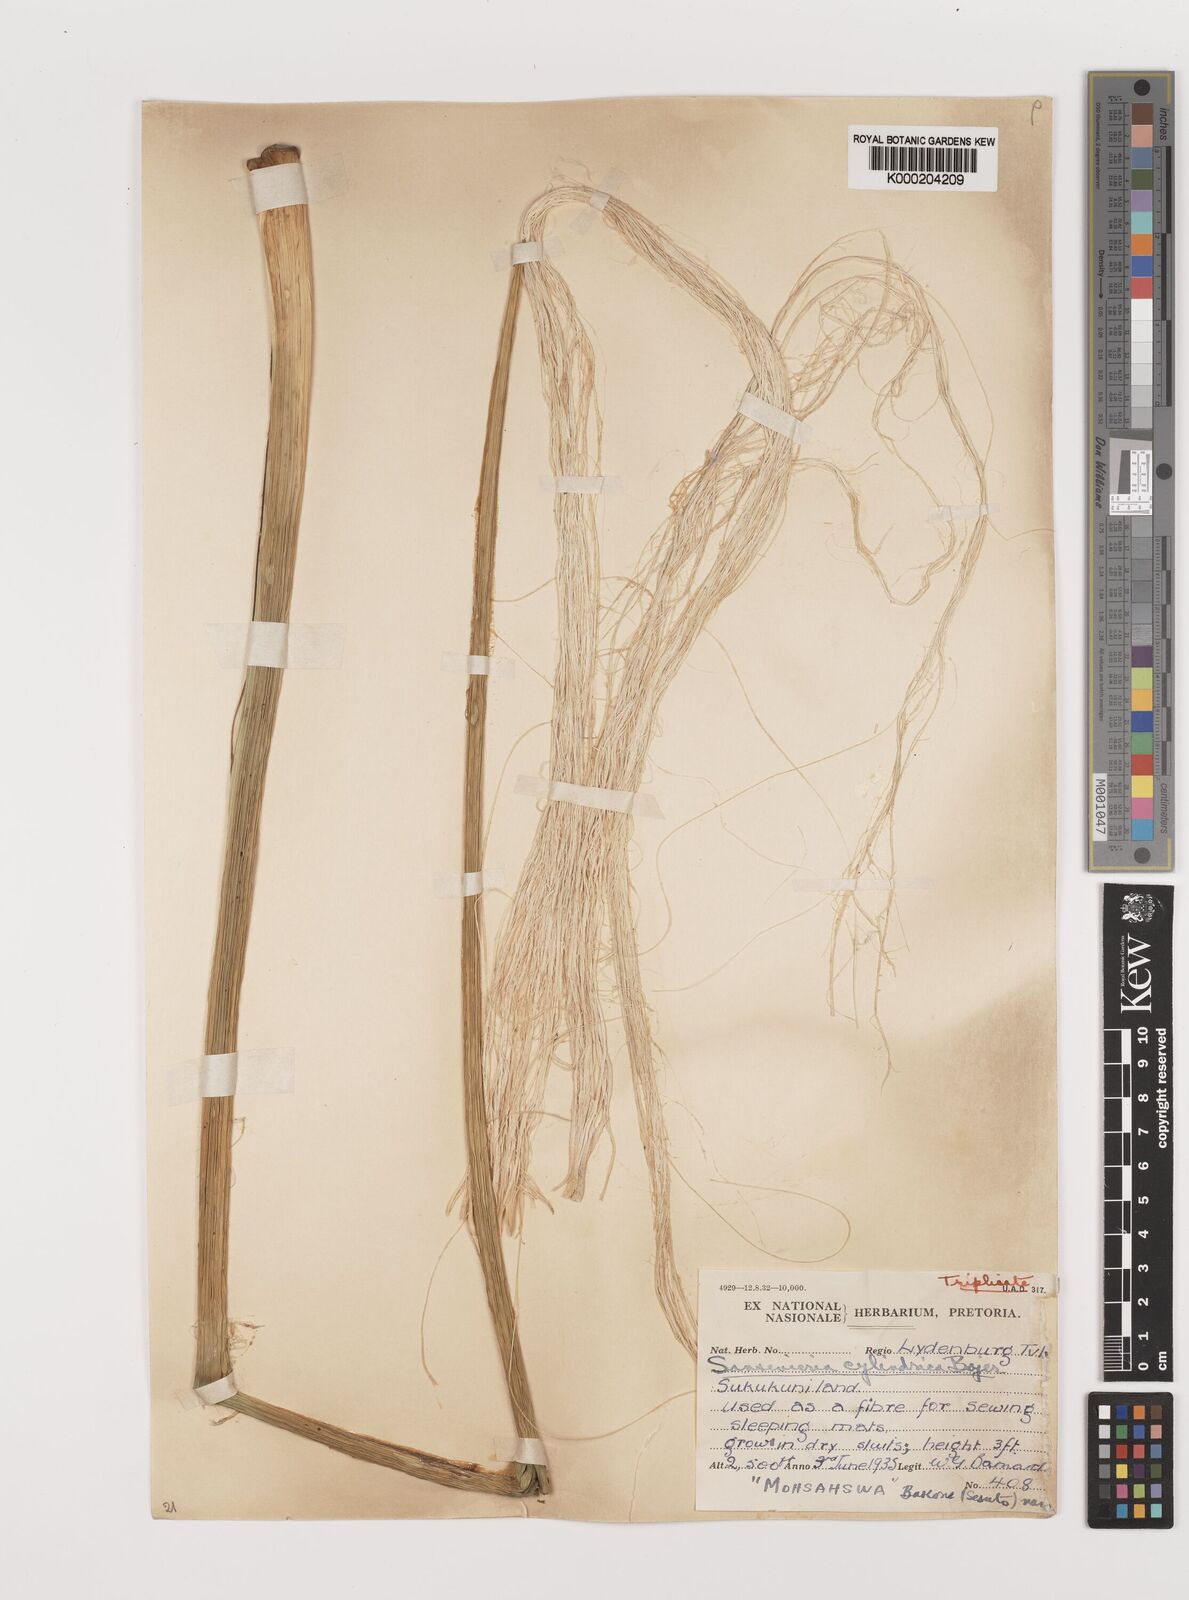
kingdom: Plantae
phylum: Tracheophyta
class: Liliopsida
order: Asparagales
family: Asparagaceae
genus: Dracaena
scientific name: Dracaena angolensis
